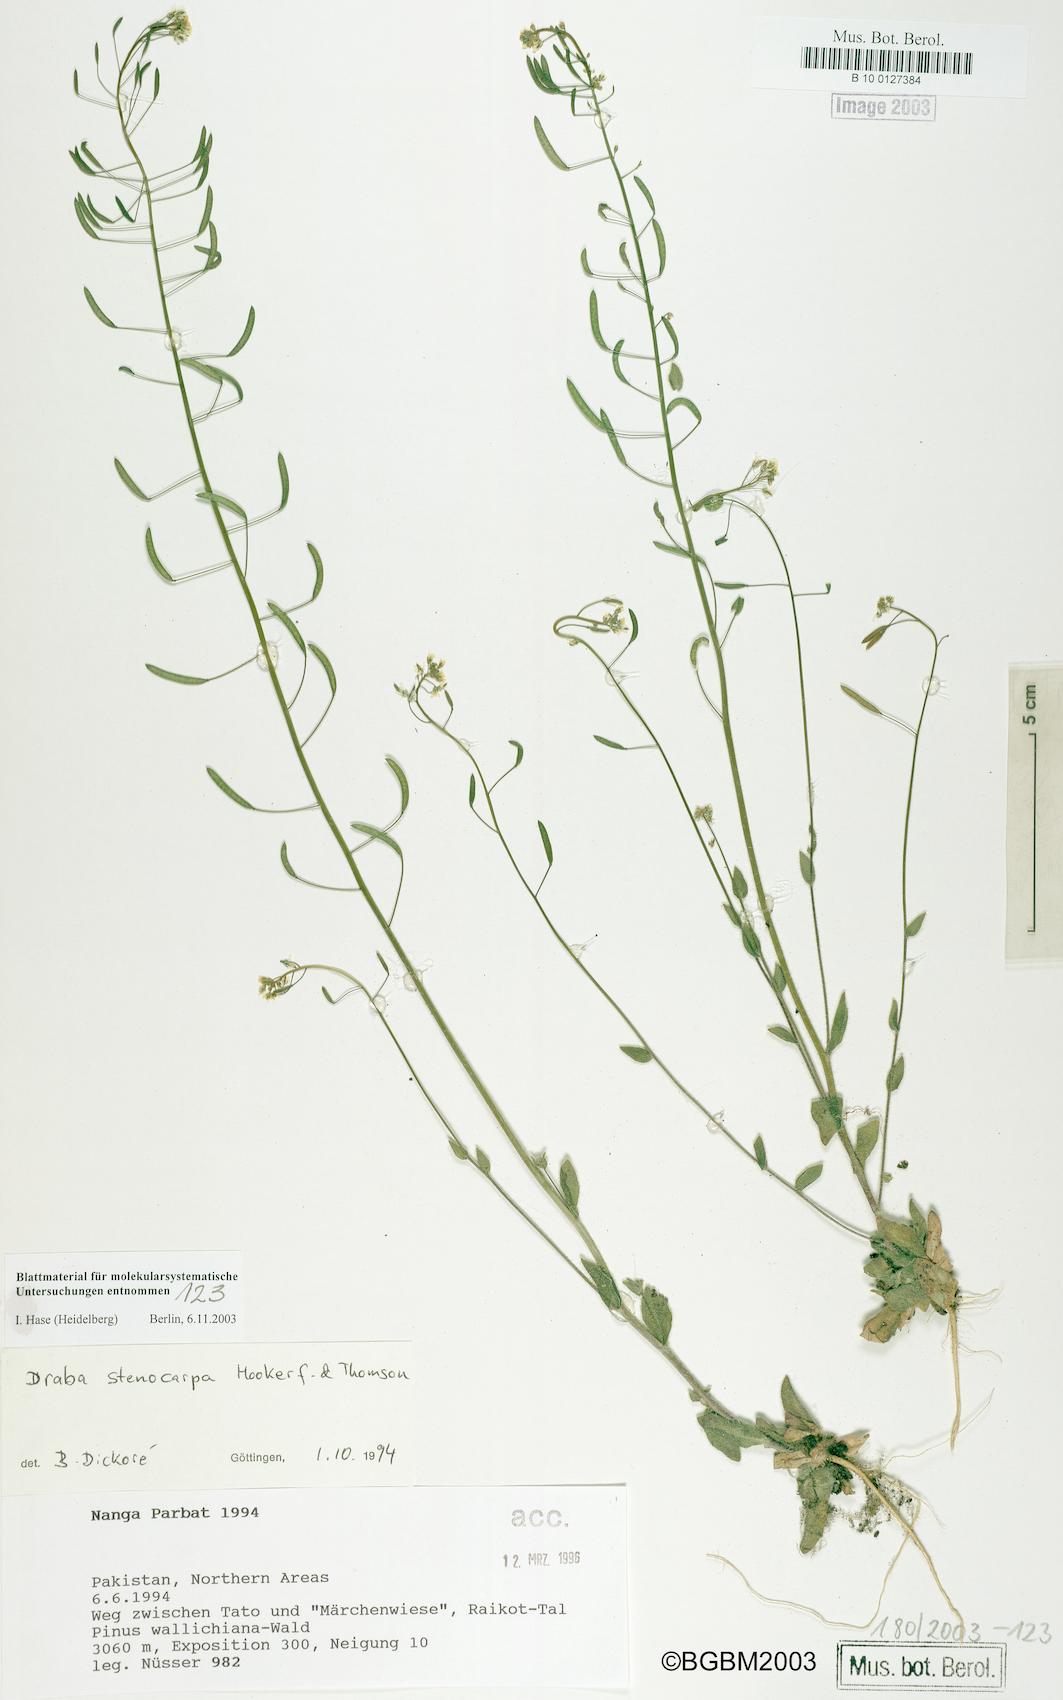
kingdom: Plantae
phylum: Tracheophyta
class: Magnoliopsida
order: Brassicales
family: Brassicaceae
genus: Draba
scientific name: Draba
